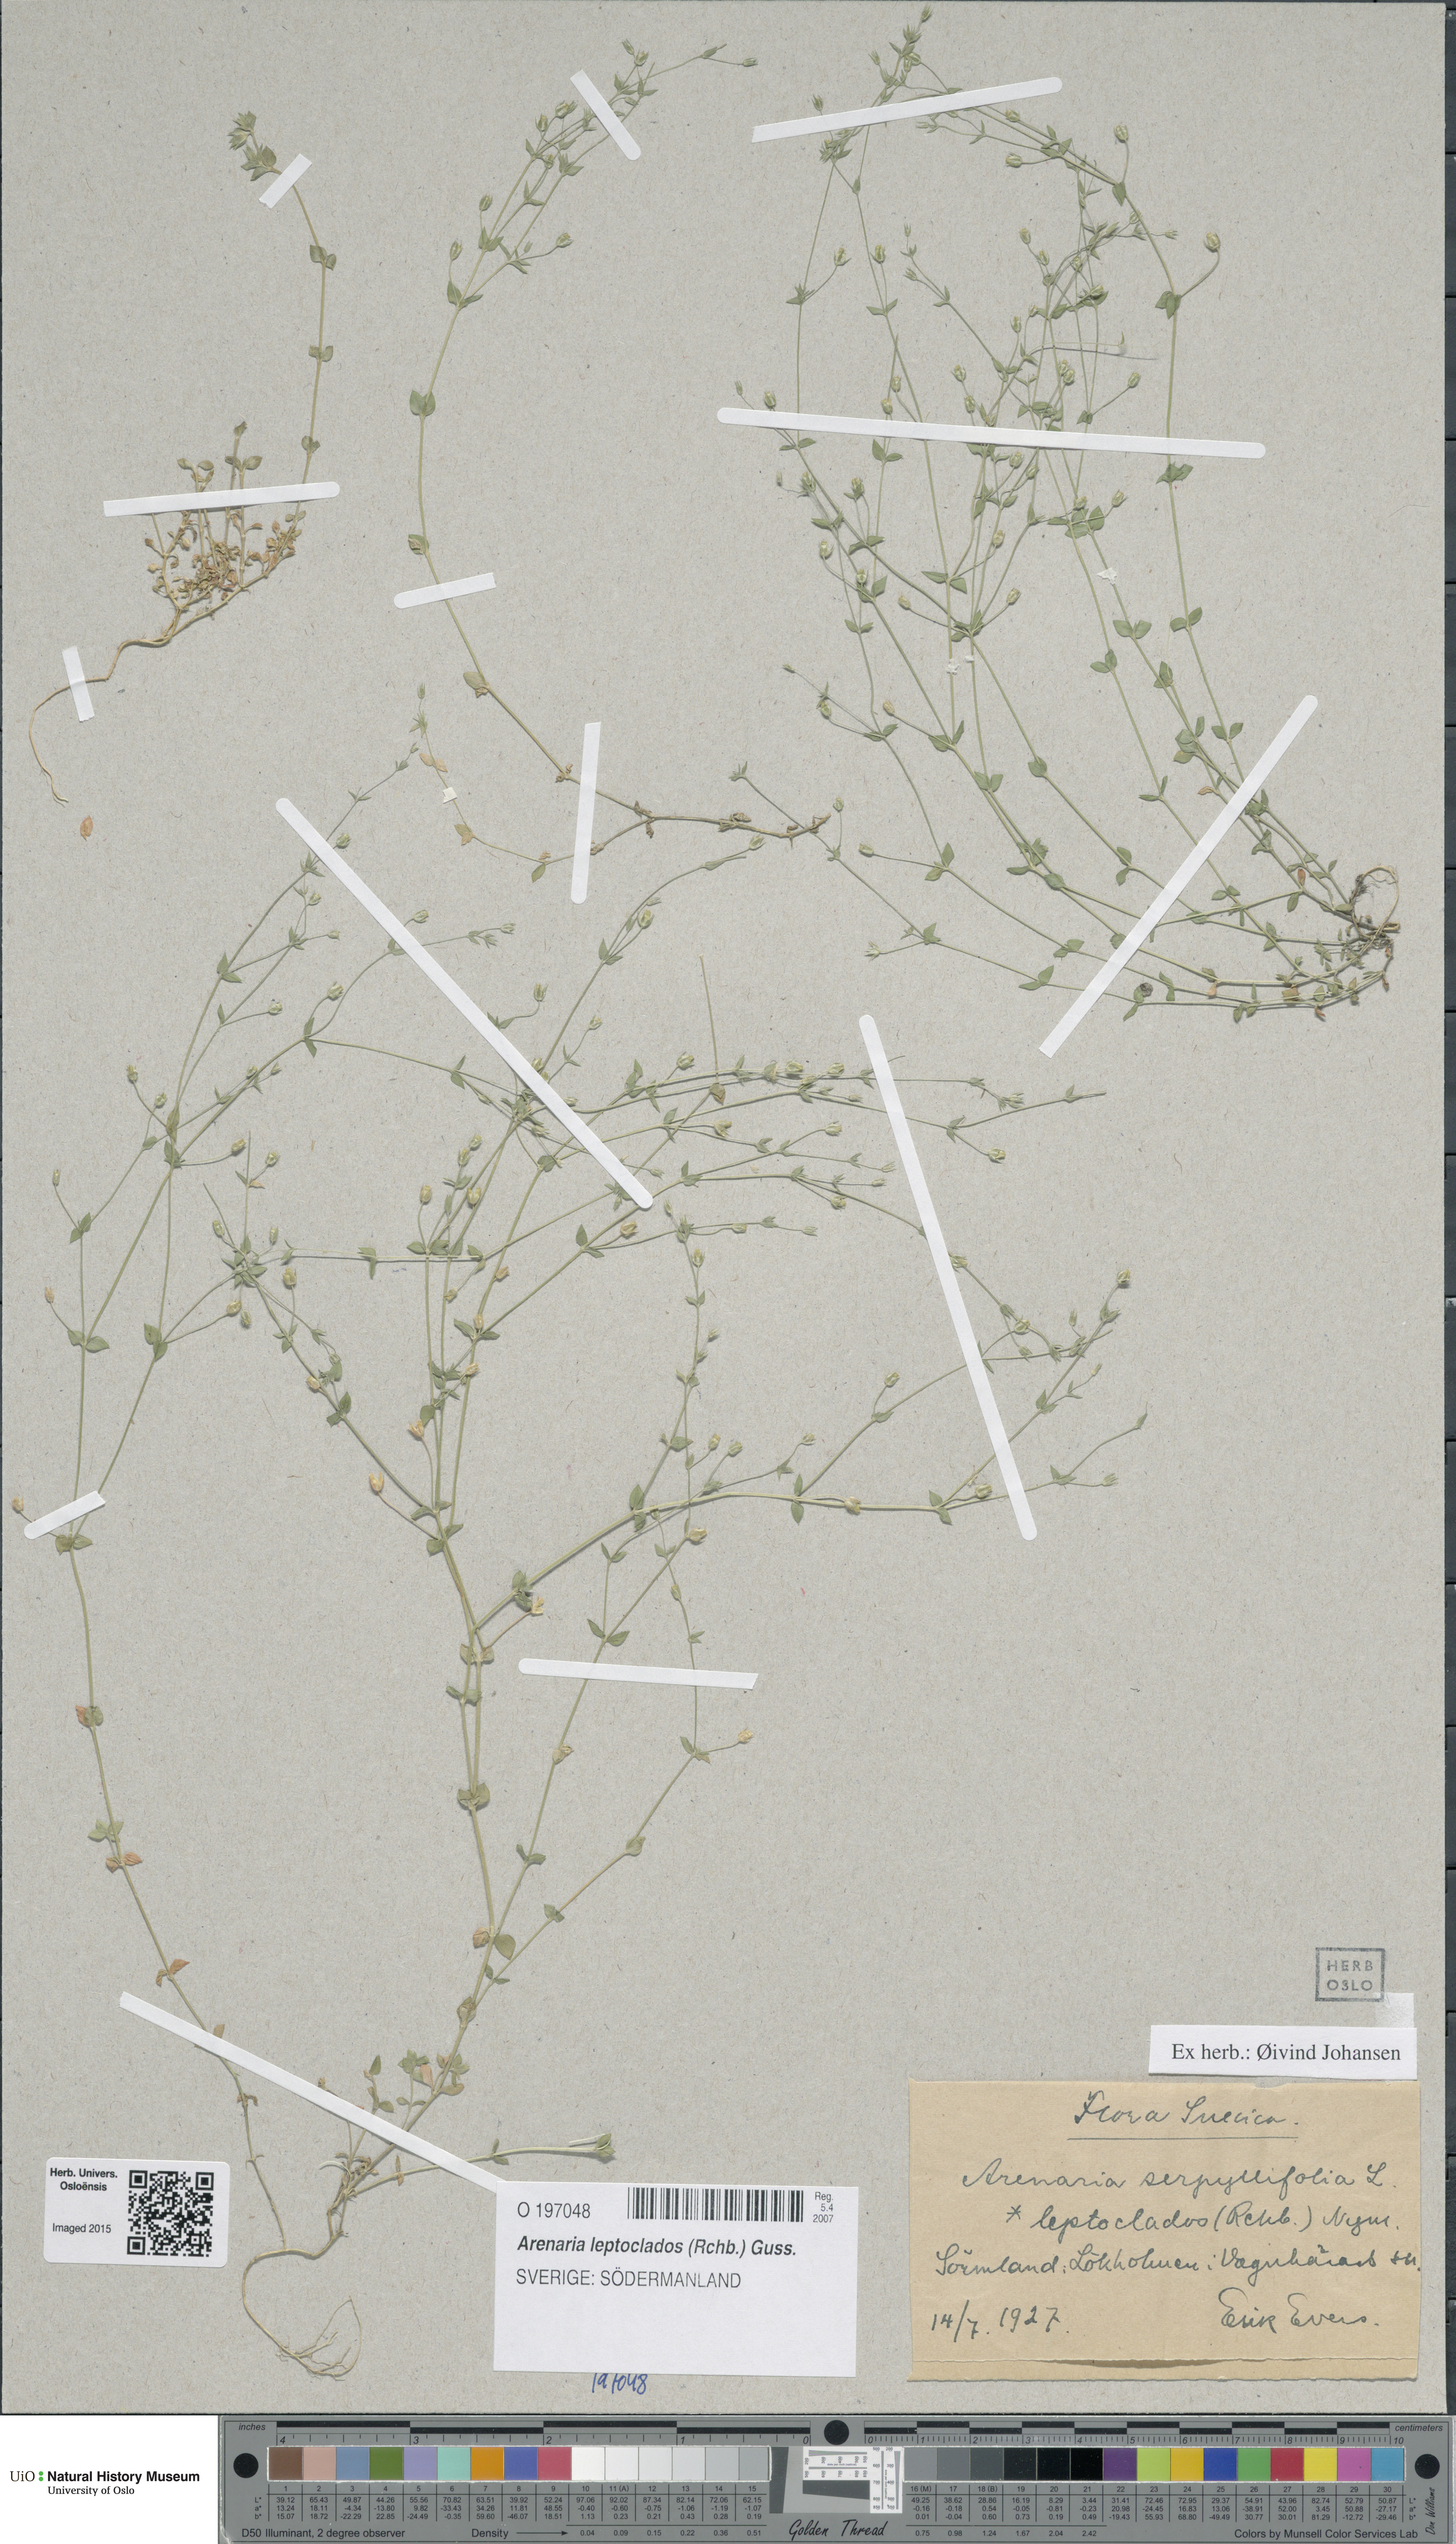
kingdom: Plantae
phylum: Tracheophyta
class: Magnoliopsida
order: Caryophyllales
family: Caryophyllaceae
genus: Arenaria
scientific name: Arenaria leptoclados
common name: Thyme-leaved sandwort
